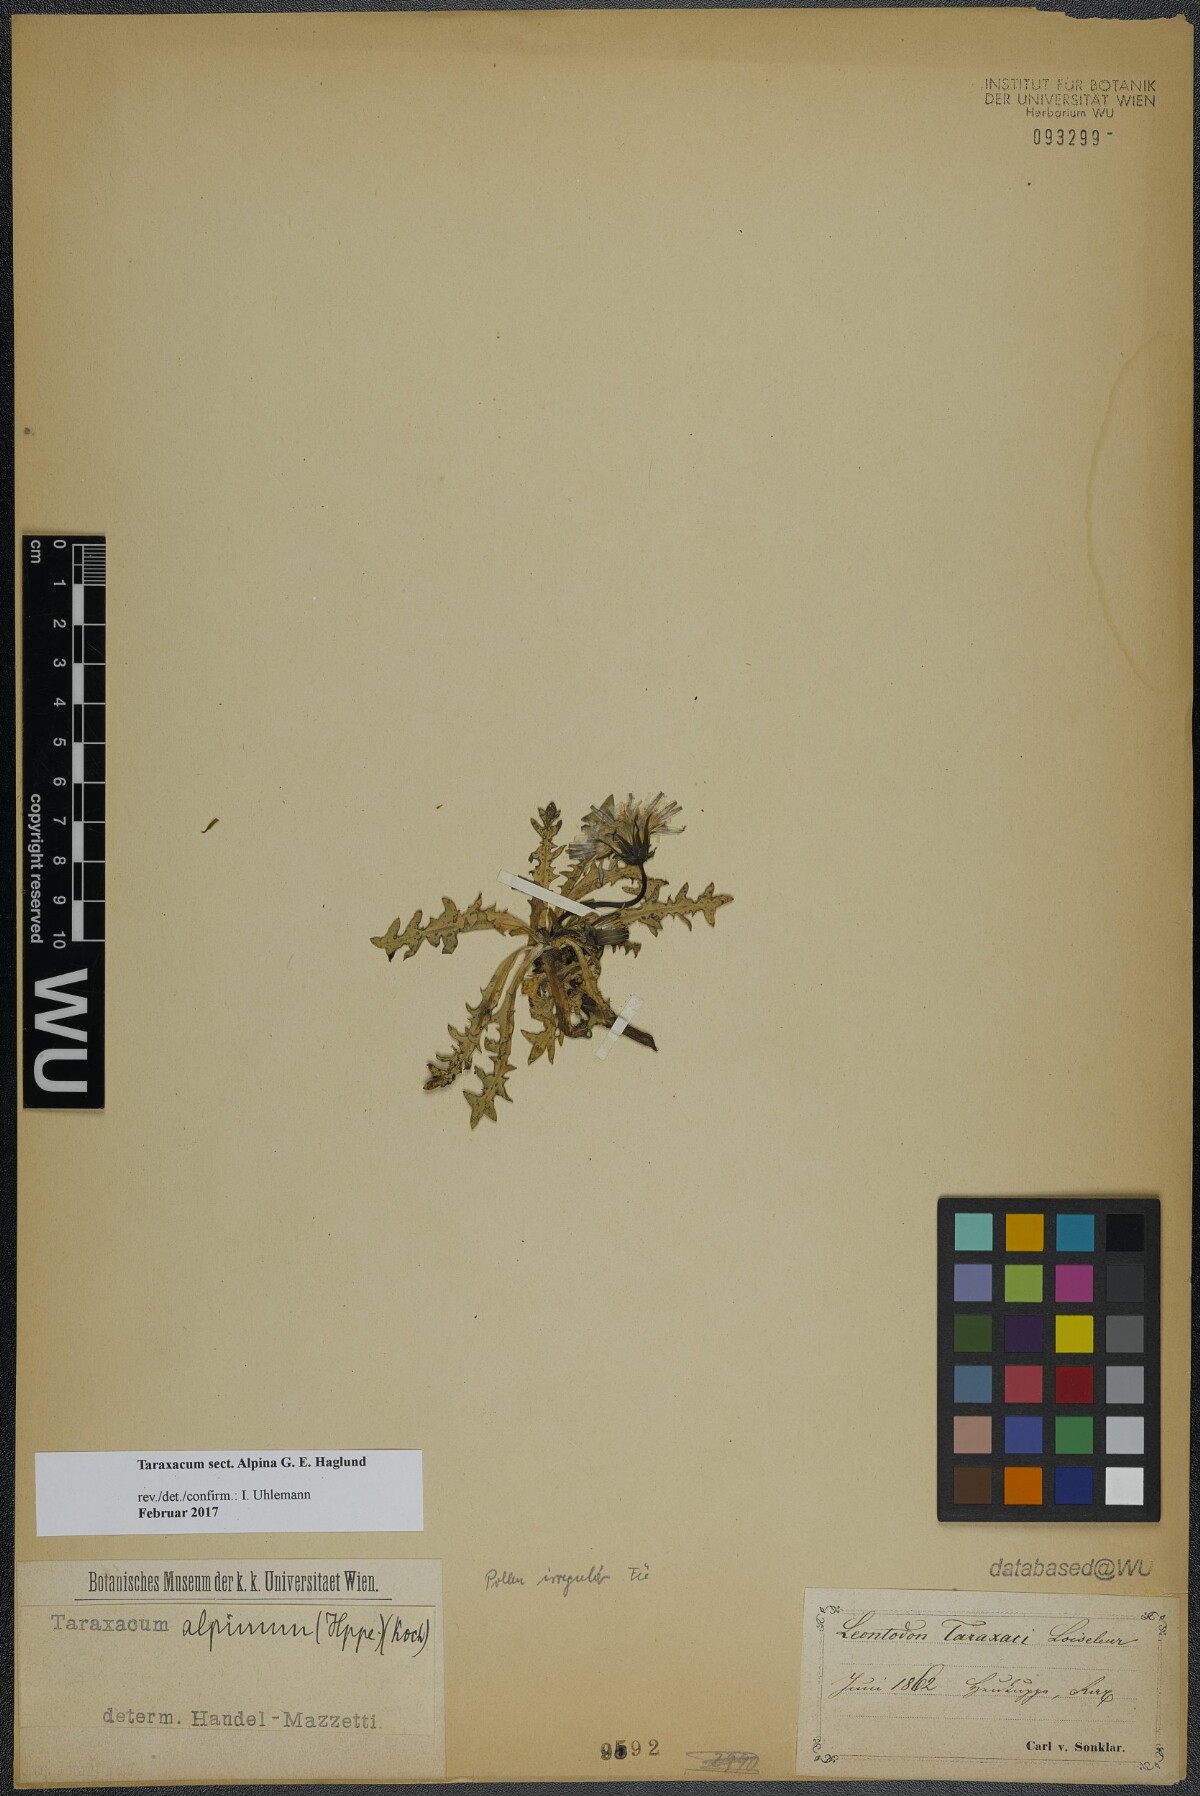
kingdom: Plantae
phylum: Tracheophyta
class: Magnoliopsida
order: Asterales
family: Asteraceae
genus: Taraxacum
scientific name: Taraxacum
